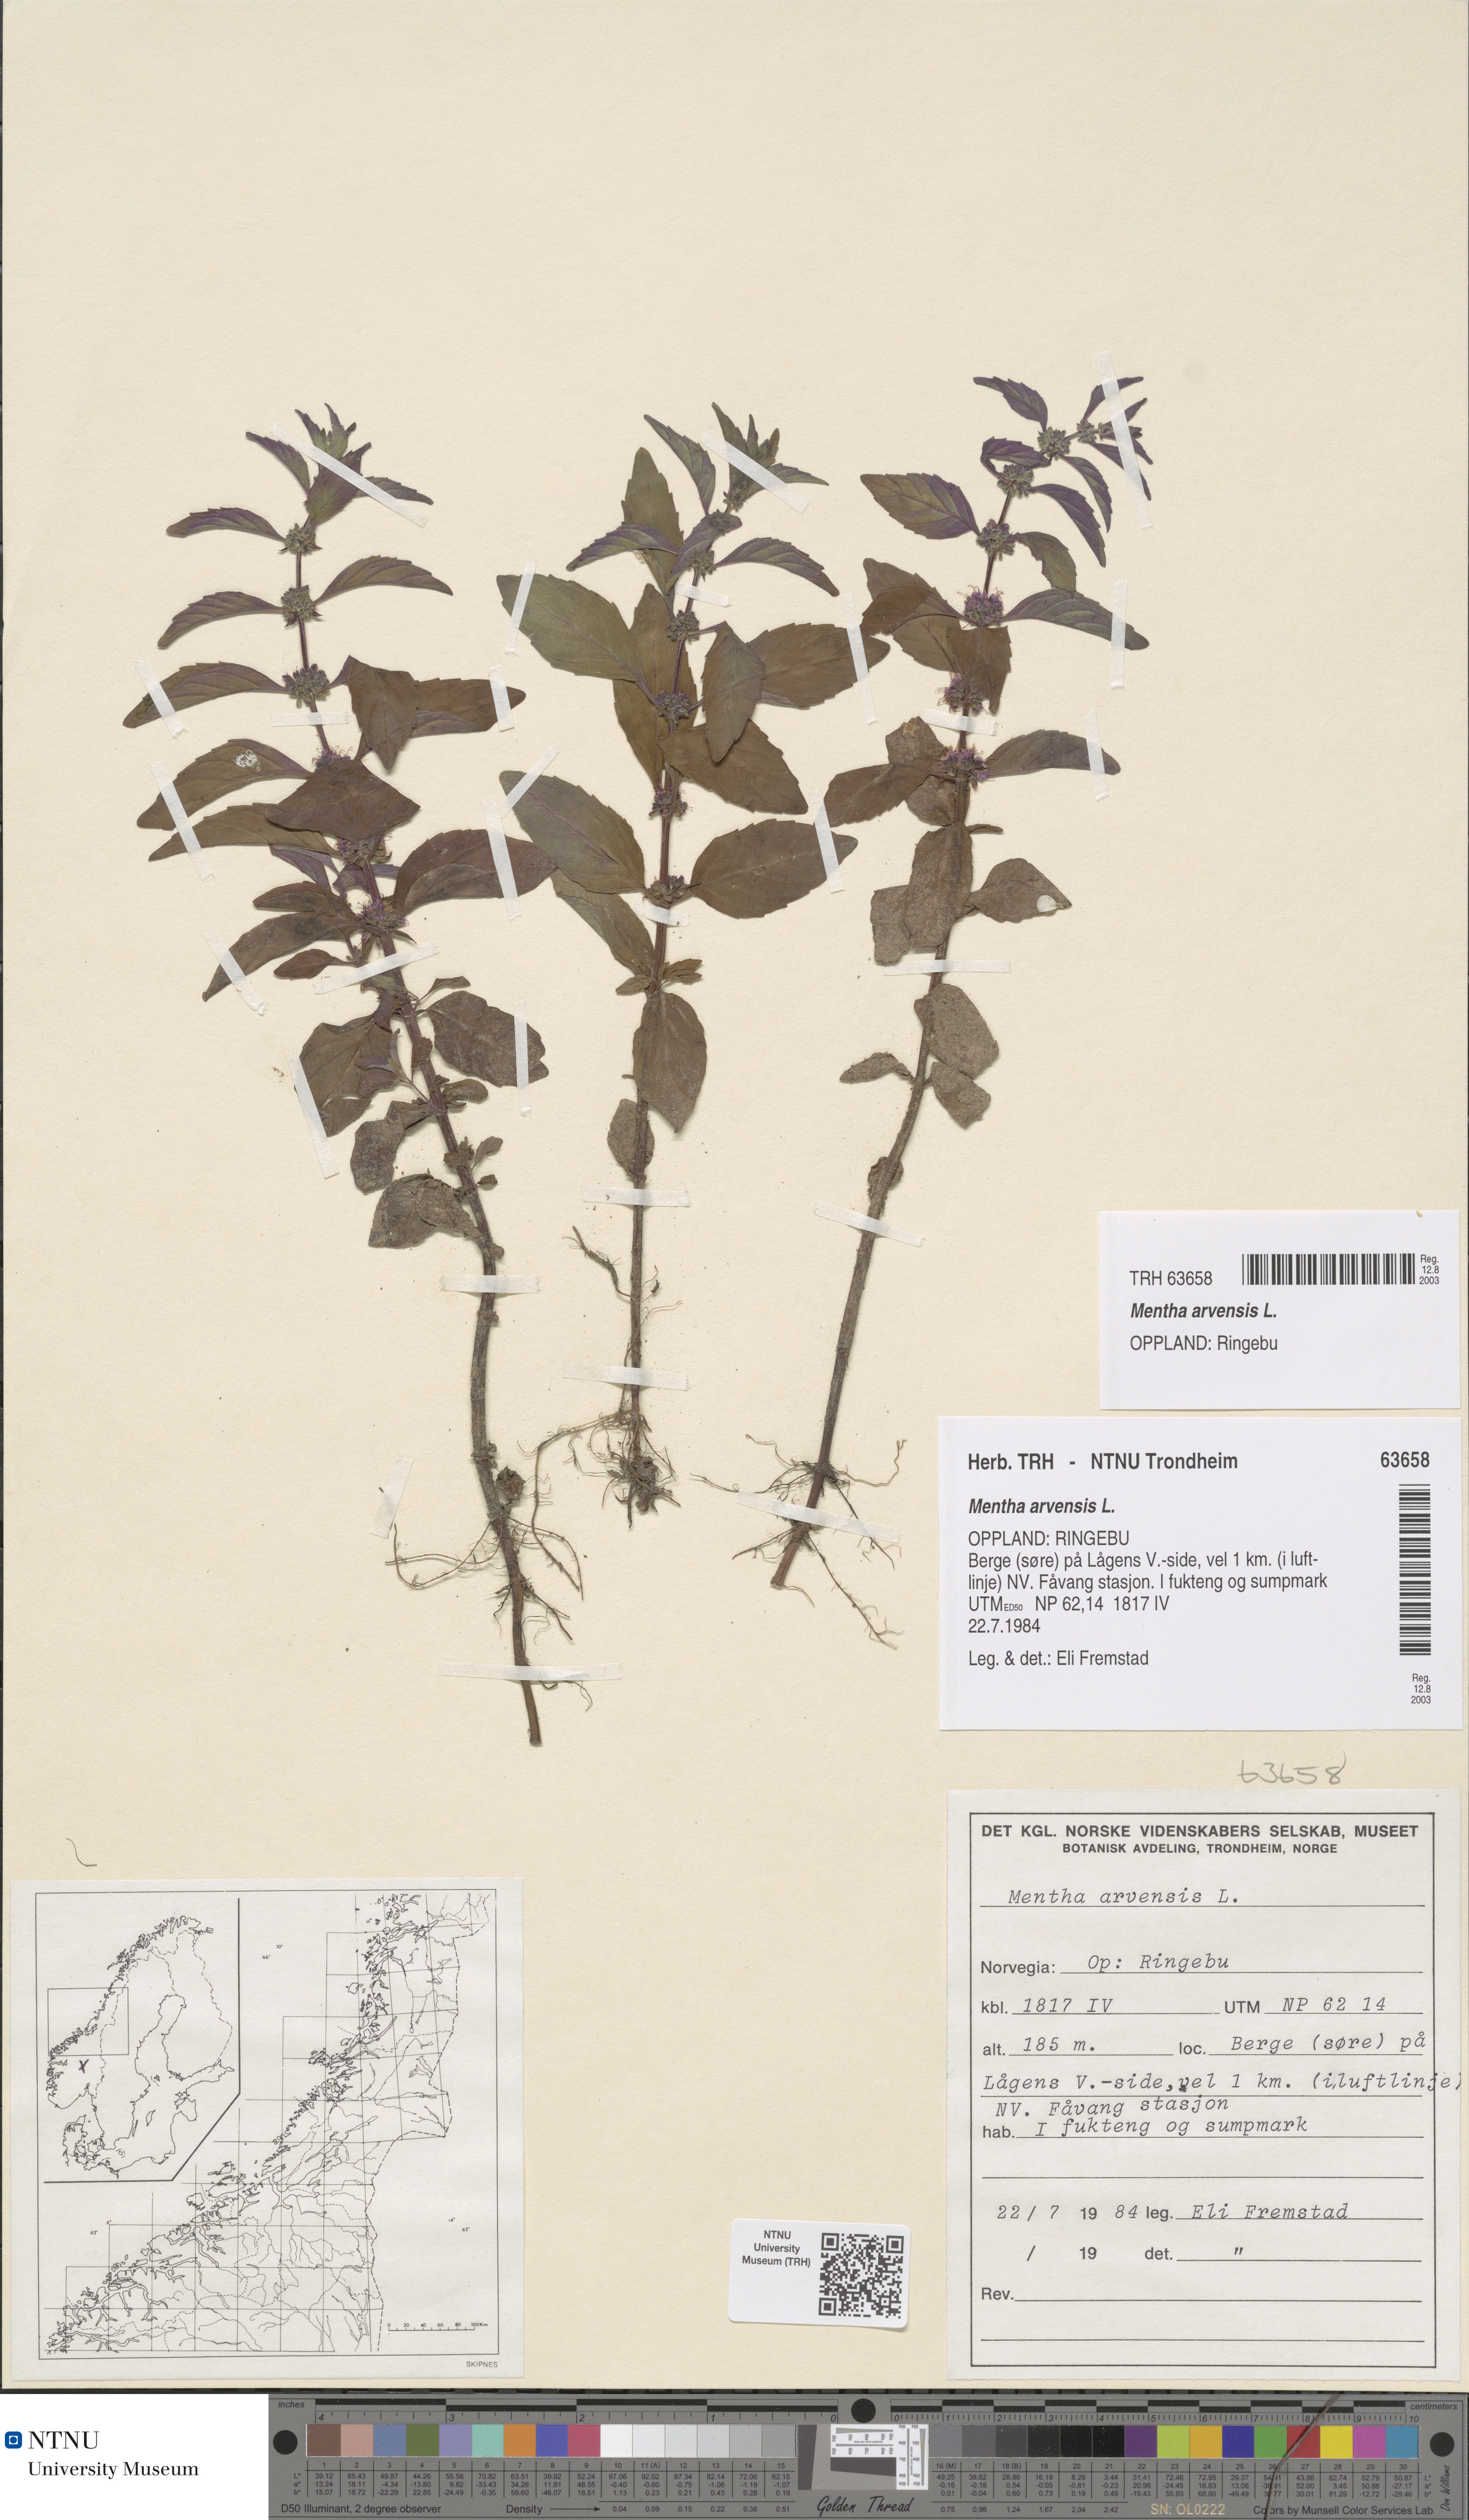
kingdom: Plantae
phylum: Tracheophyta
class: Magnoliopsida
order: Lamiales
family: Lamiaceae
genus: Mentha
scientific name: Mentha arvensis
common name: Corn mint
